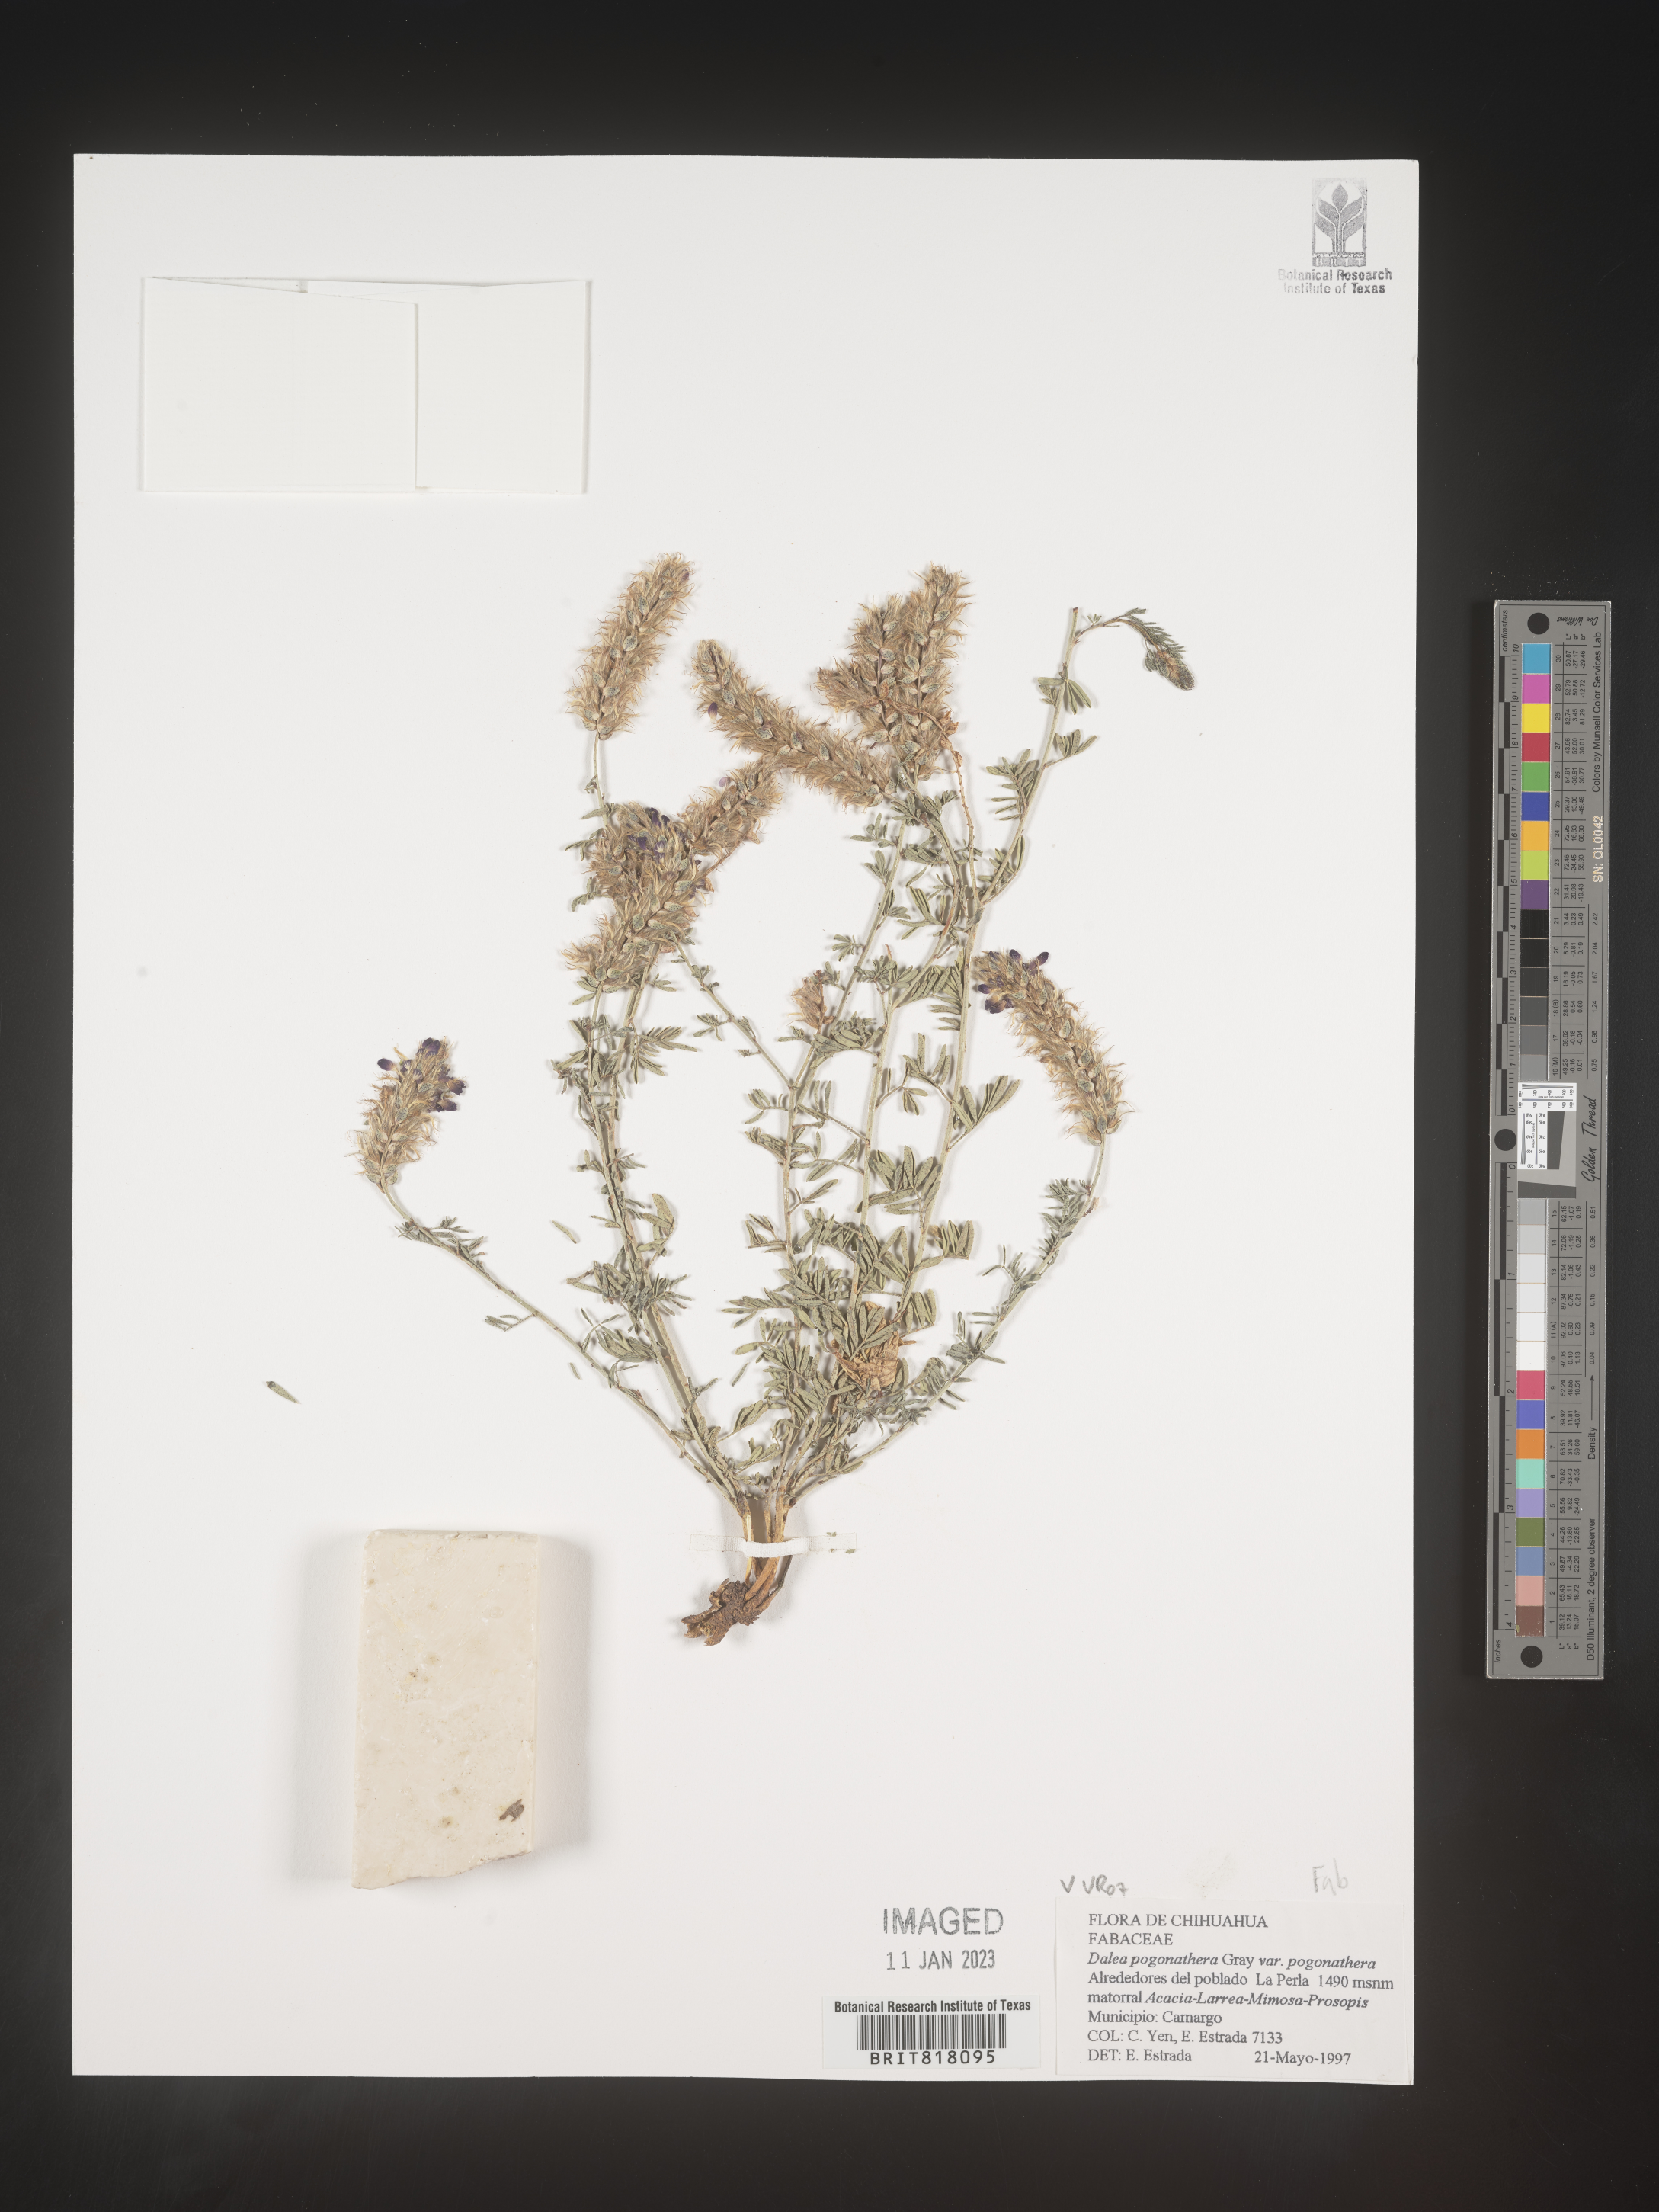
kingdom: Plantae
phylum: Tracheophyta
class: Magnoliopsida
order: Fabales
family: Fabaceae
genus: Dalea
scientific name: Dalea
